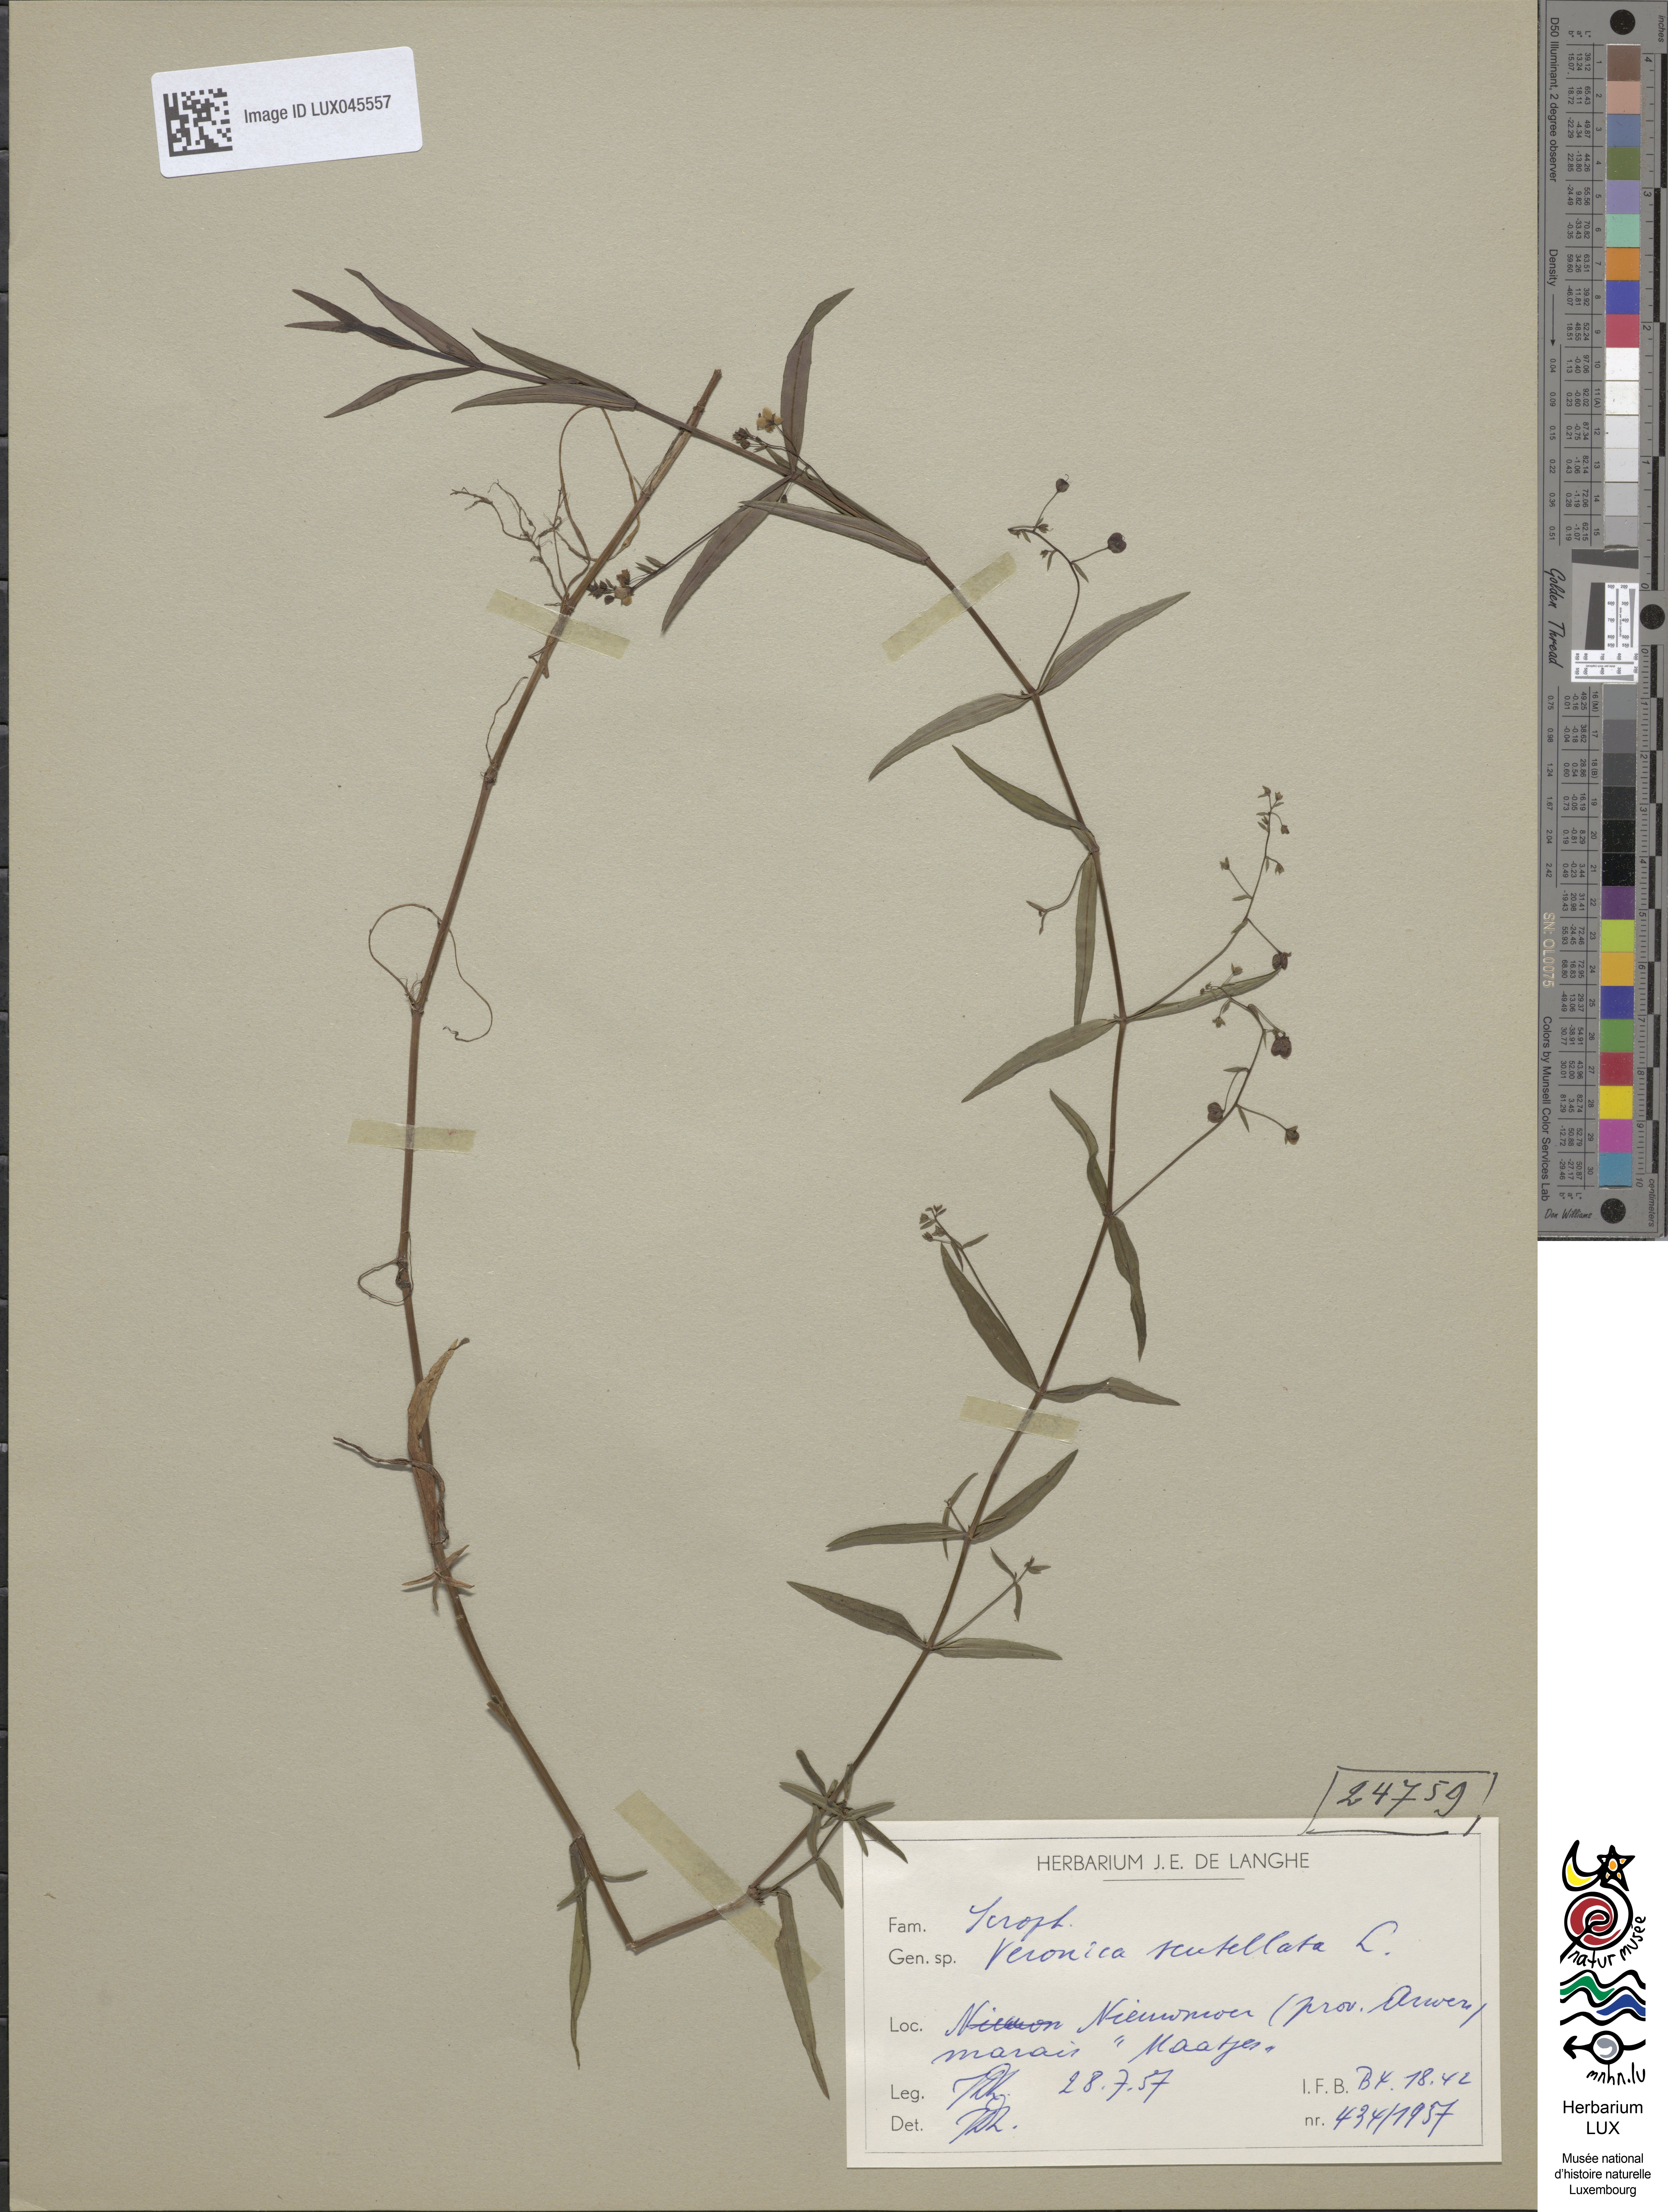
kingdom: Plantae
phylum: Tracheophyta
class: Magnoliopsida
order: Lamiales
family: Plantaginaceae
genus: Veronica
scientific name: Veronica scutellata
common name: Marsh speedwell
